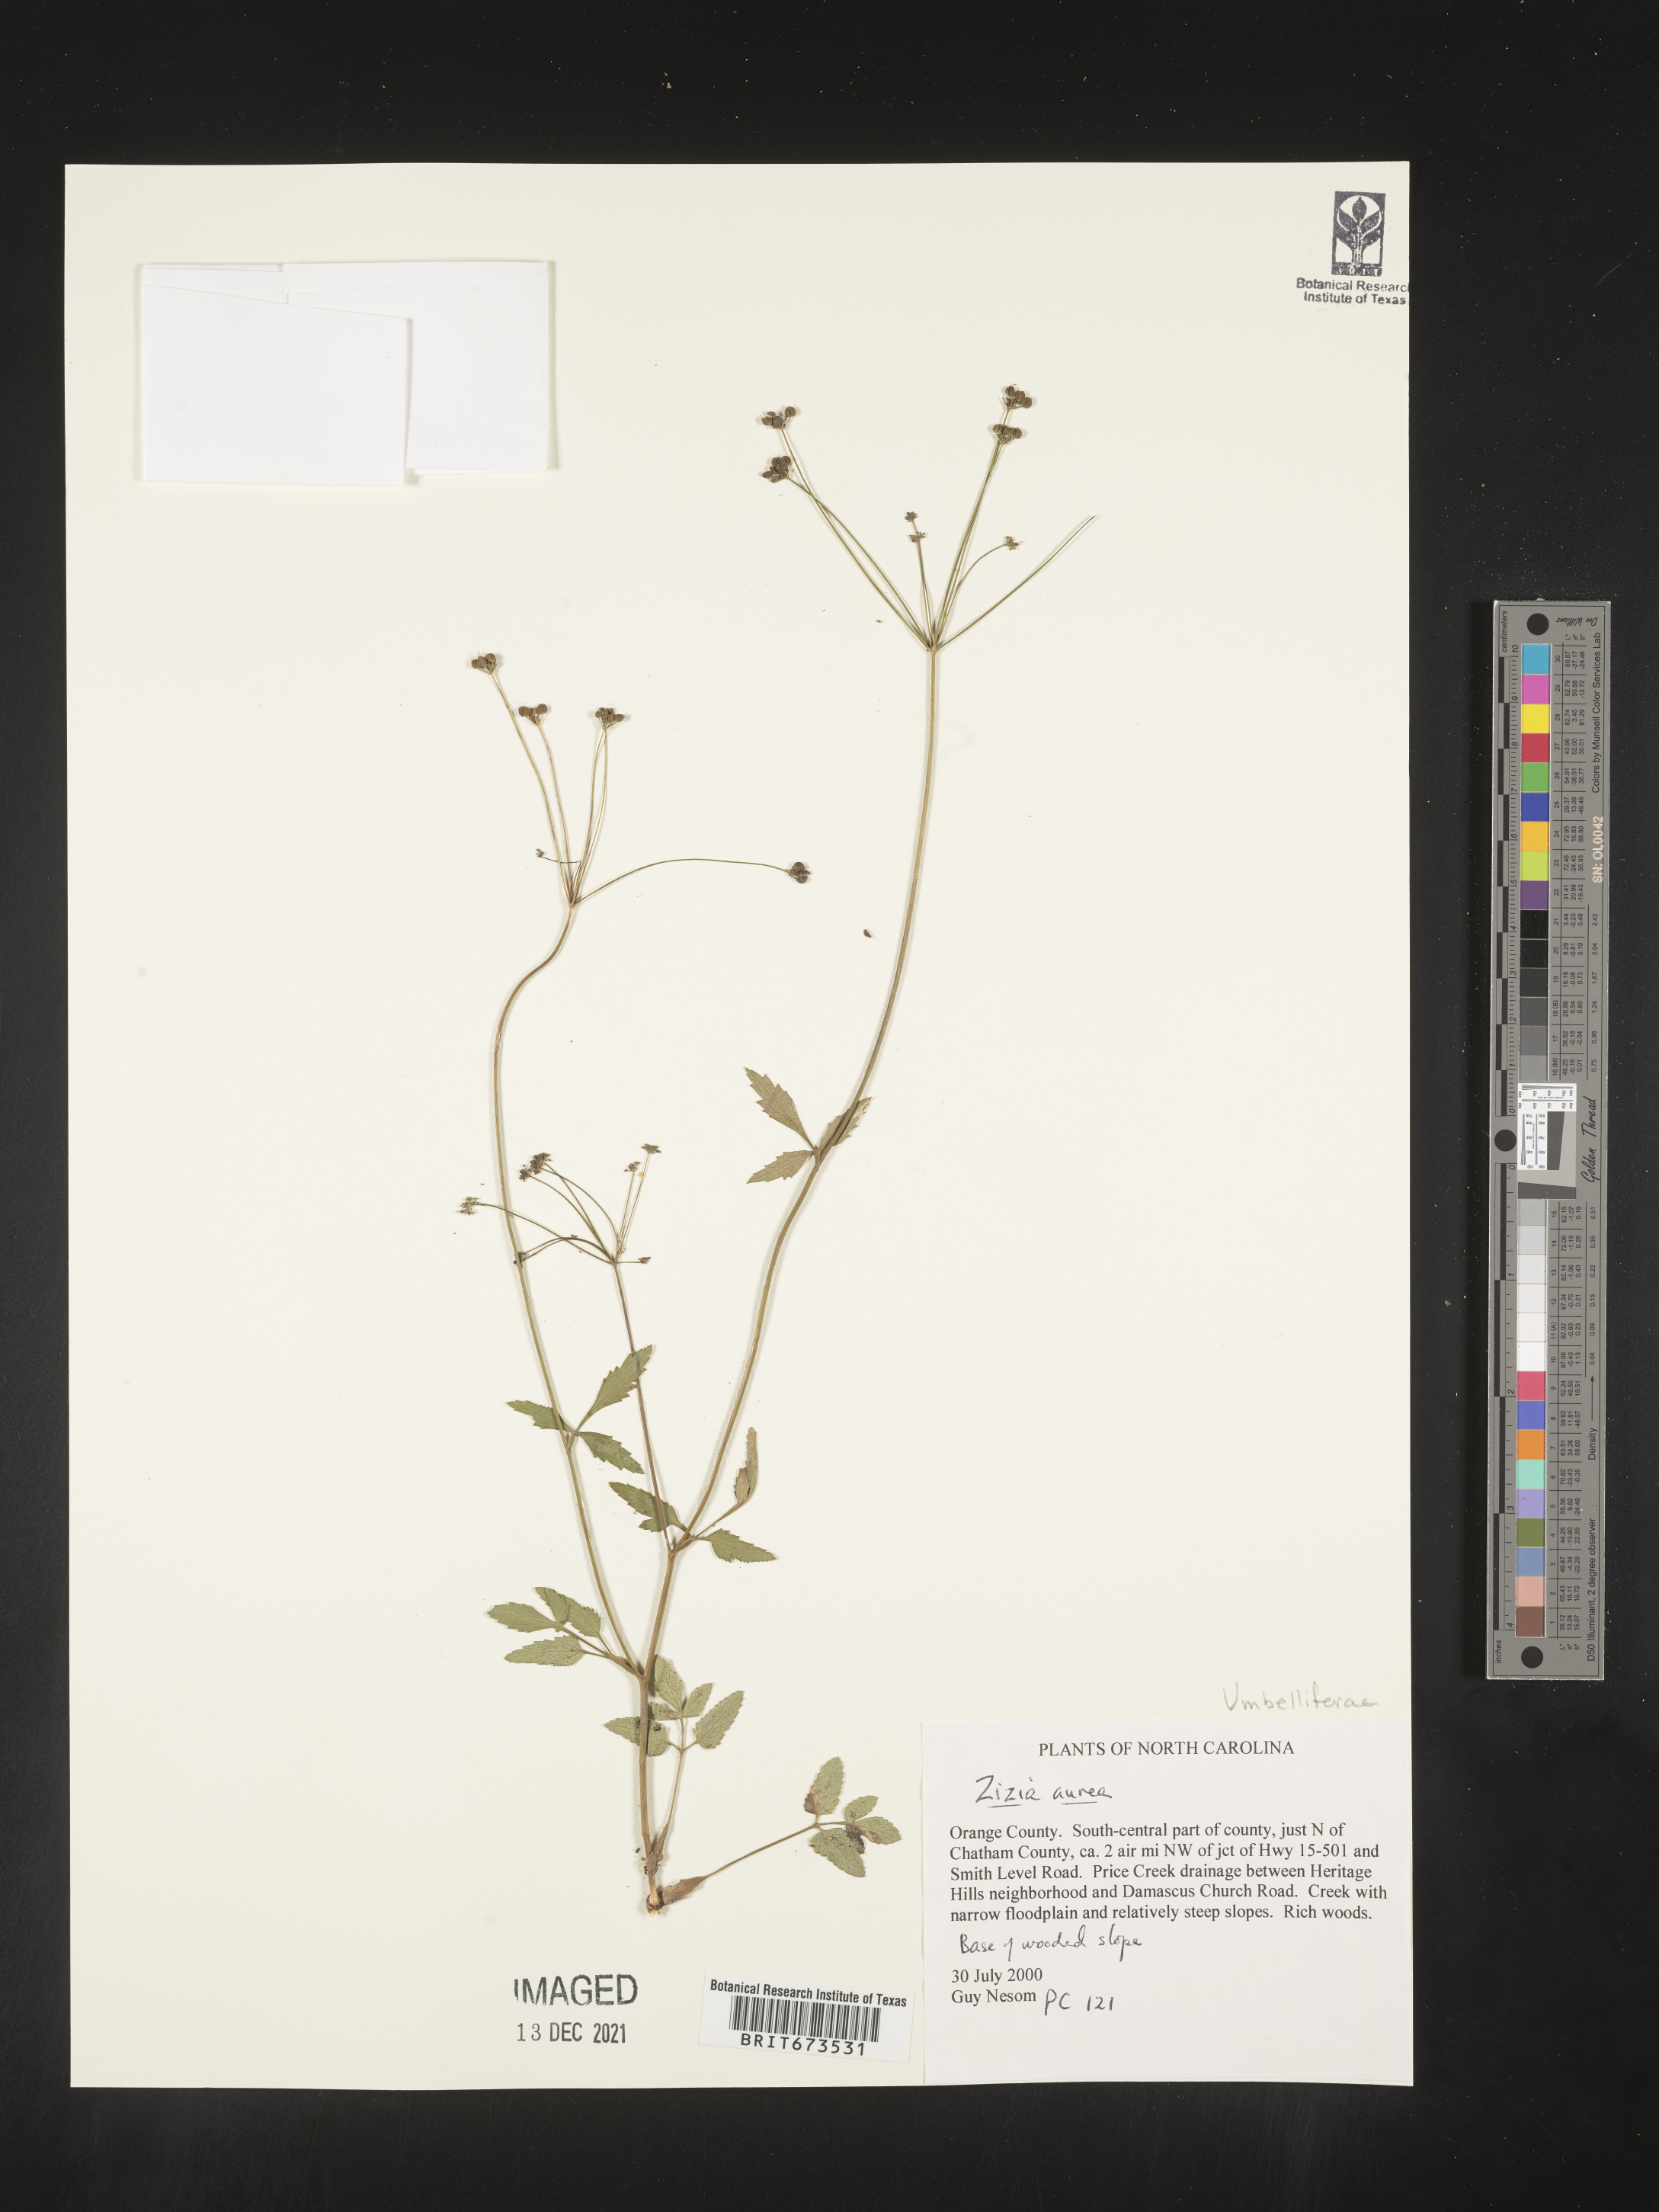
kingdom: Plantae
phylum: Tracheophyta
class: Magnoliopsida
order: Apiales
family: Apiaceae
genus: Zizia
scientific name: Zizia aurea
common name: Golden alexanders
